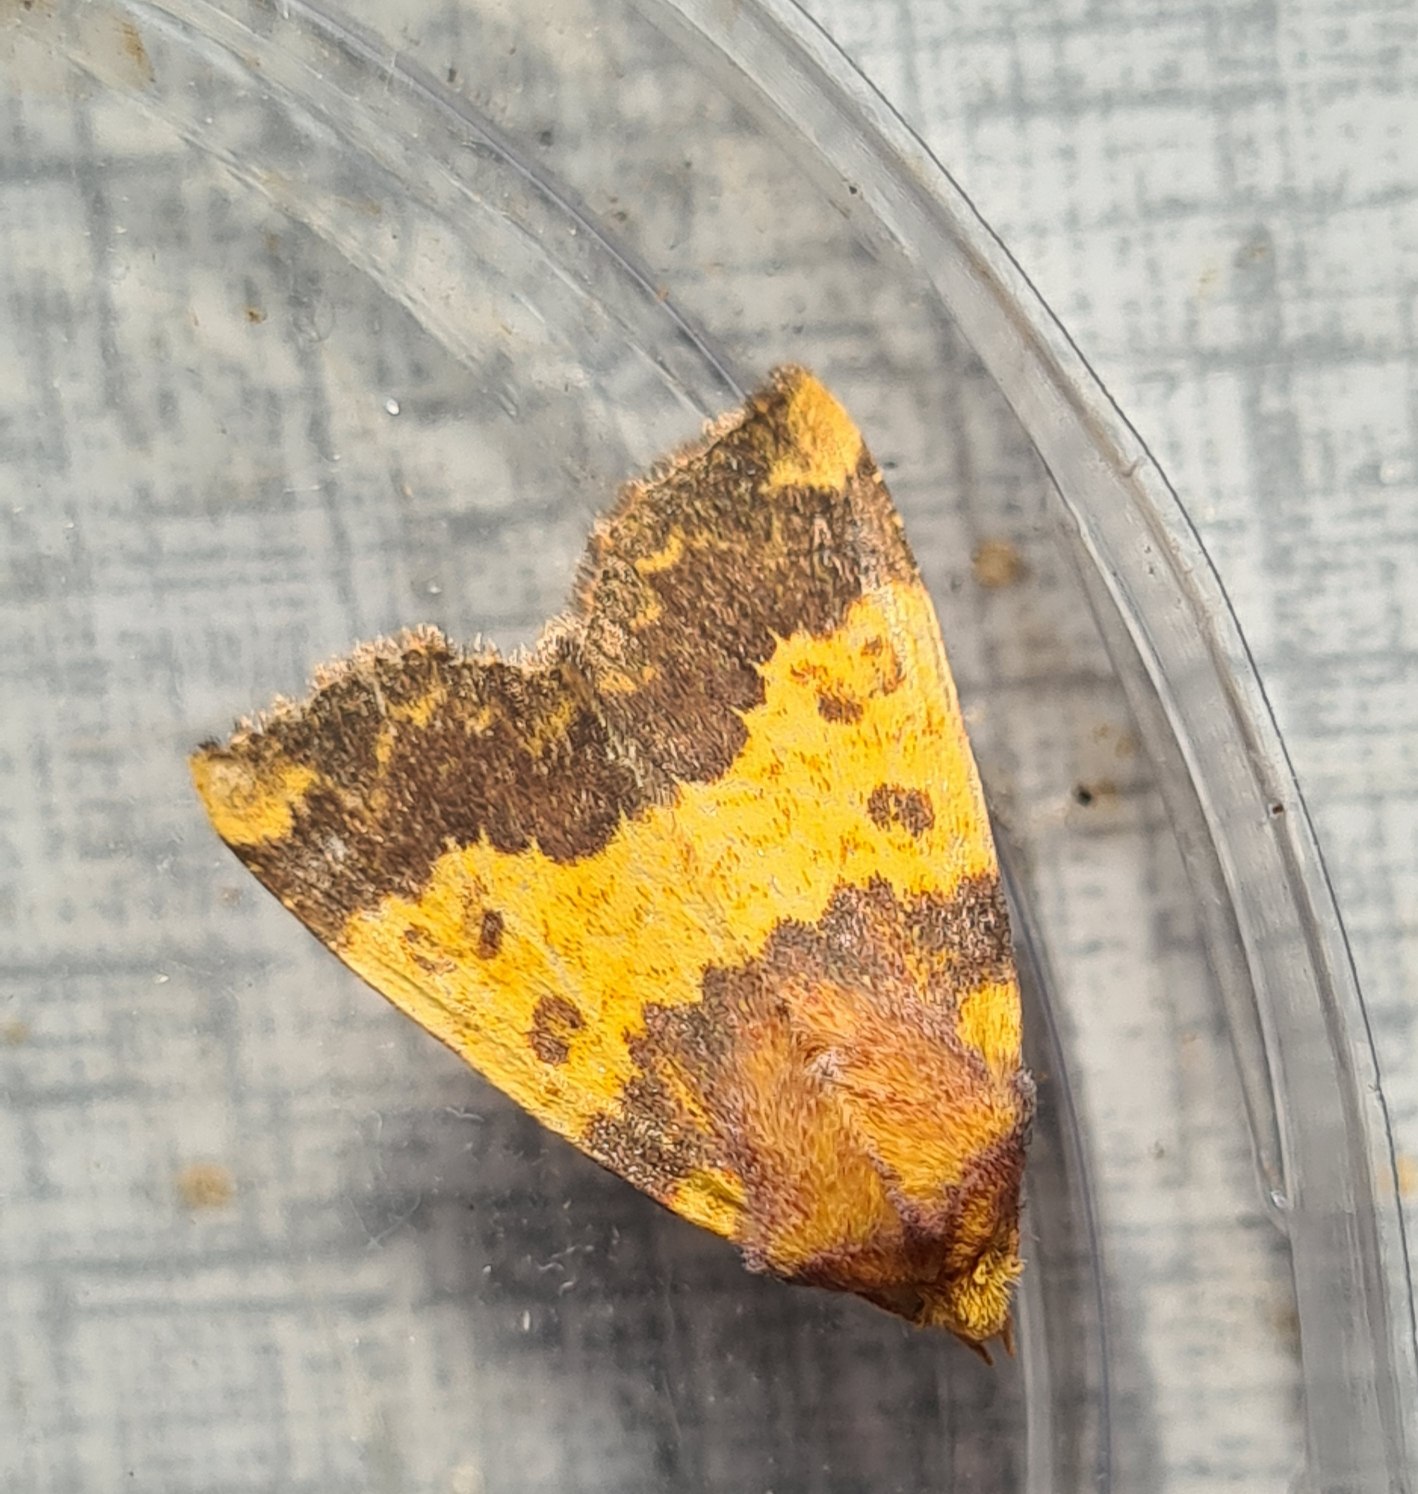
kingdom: Animalia
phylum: Arthropoda
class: Insecta
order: Lepidoptera
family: Noctuidae
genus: Tiliacea
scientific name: Tiliacea aurago
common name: Guldugle
